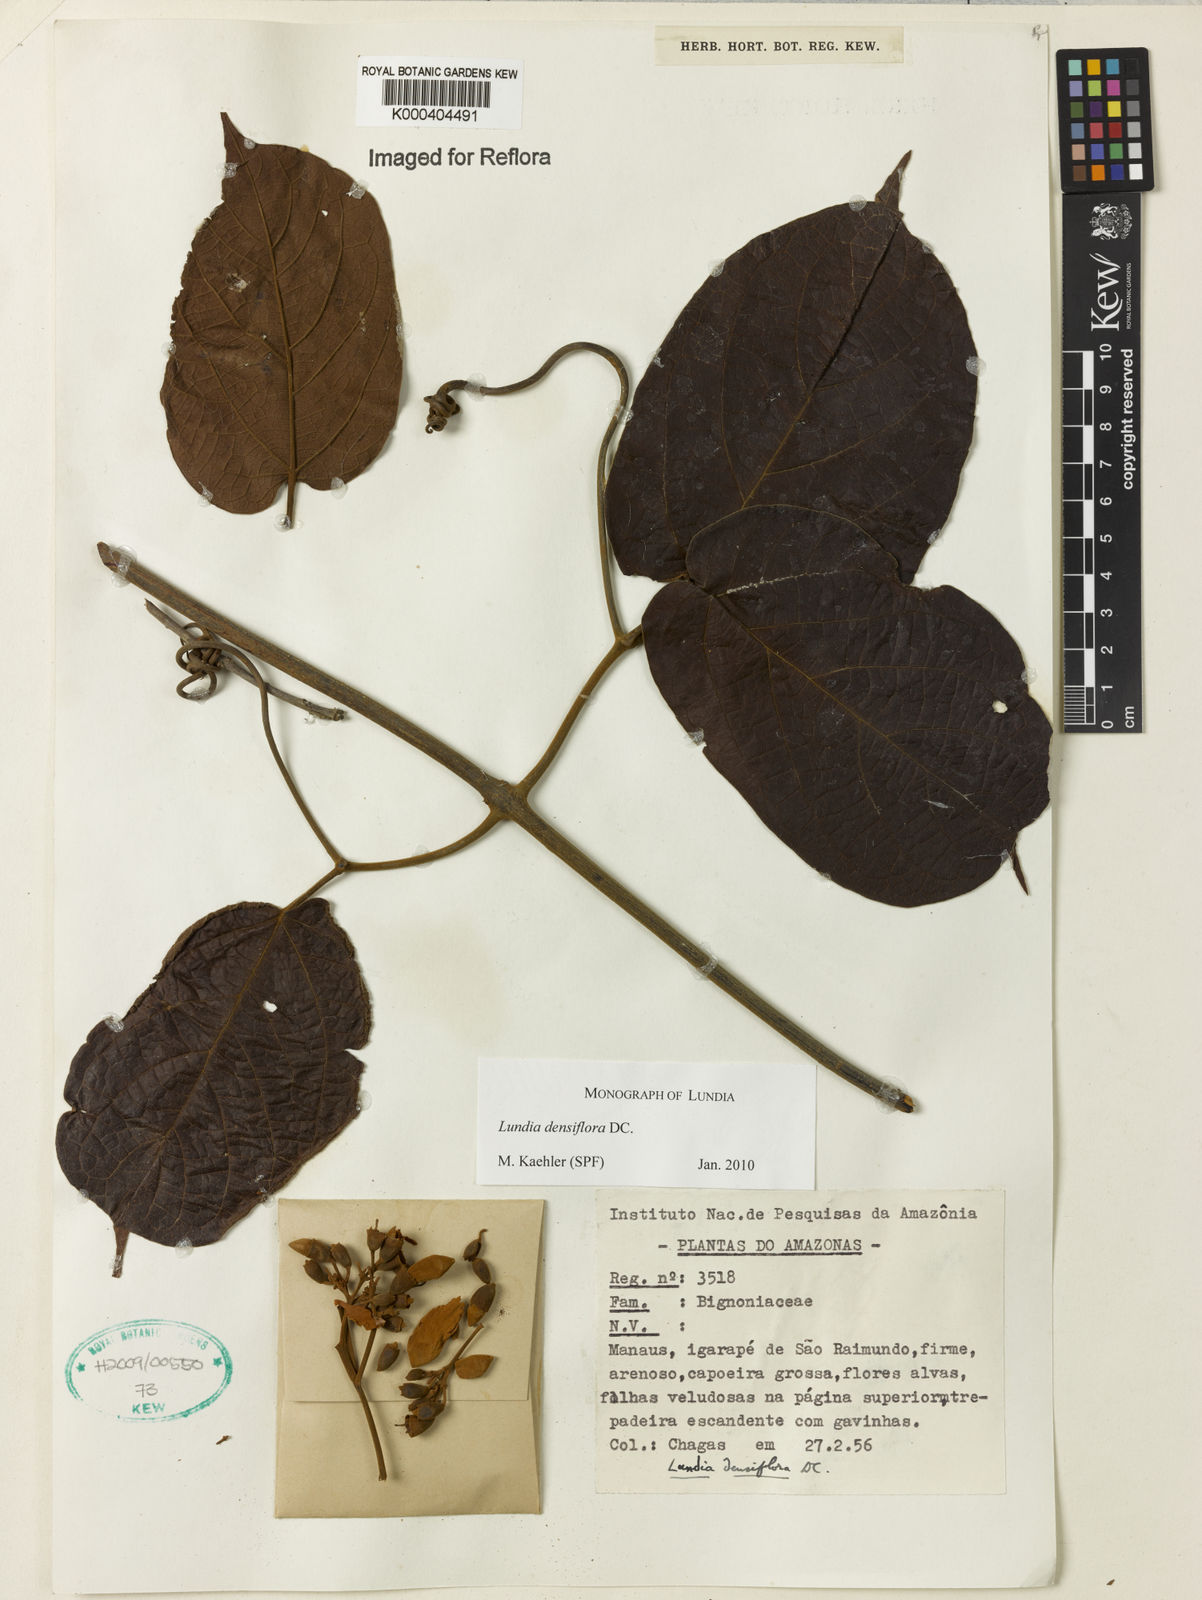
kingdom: Plantae
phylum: Tracheophyta
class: Magnoliopsida
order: Lamiales
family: Bignoniaceae
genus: Lundia
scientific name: Lundia densiflora
